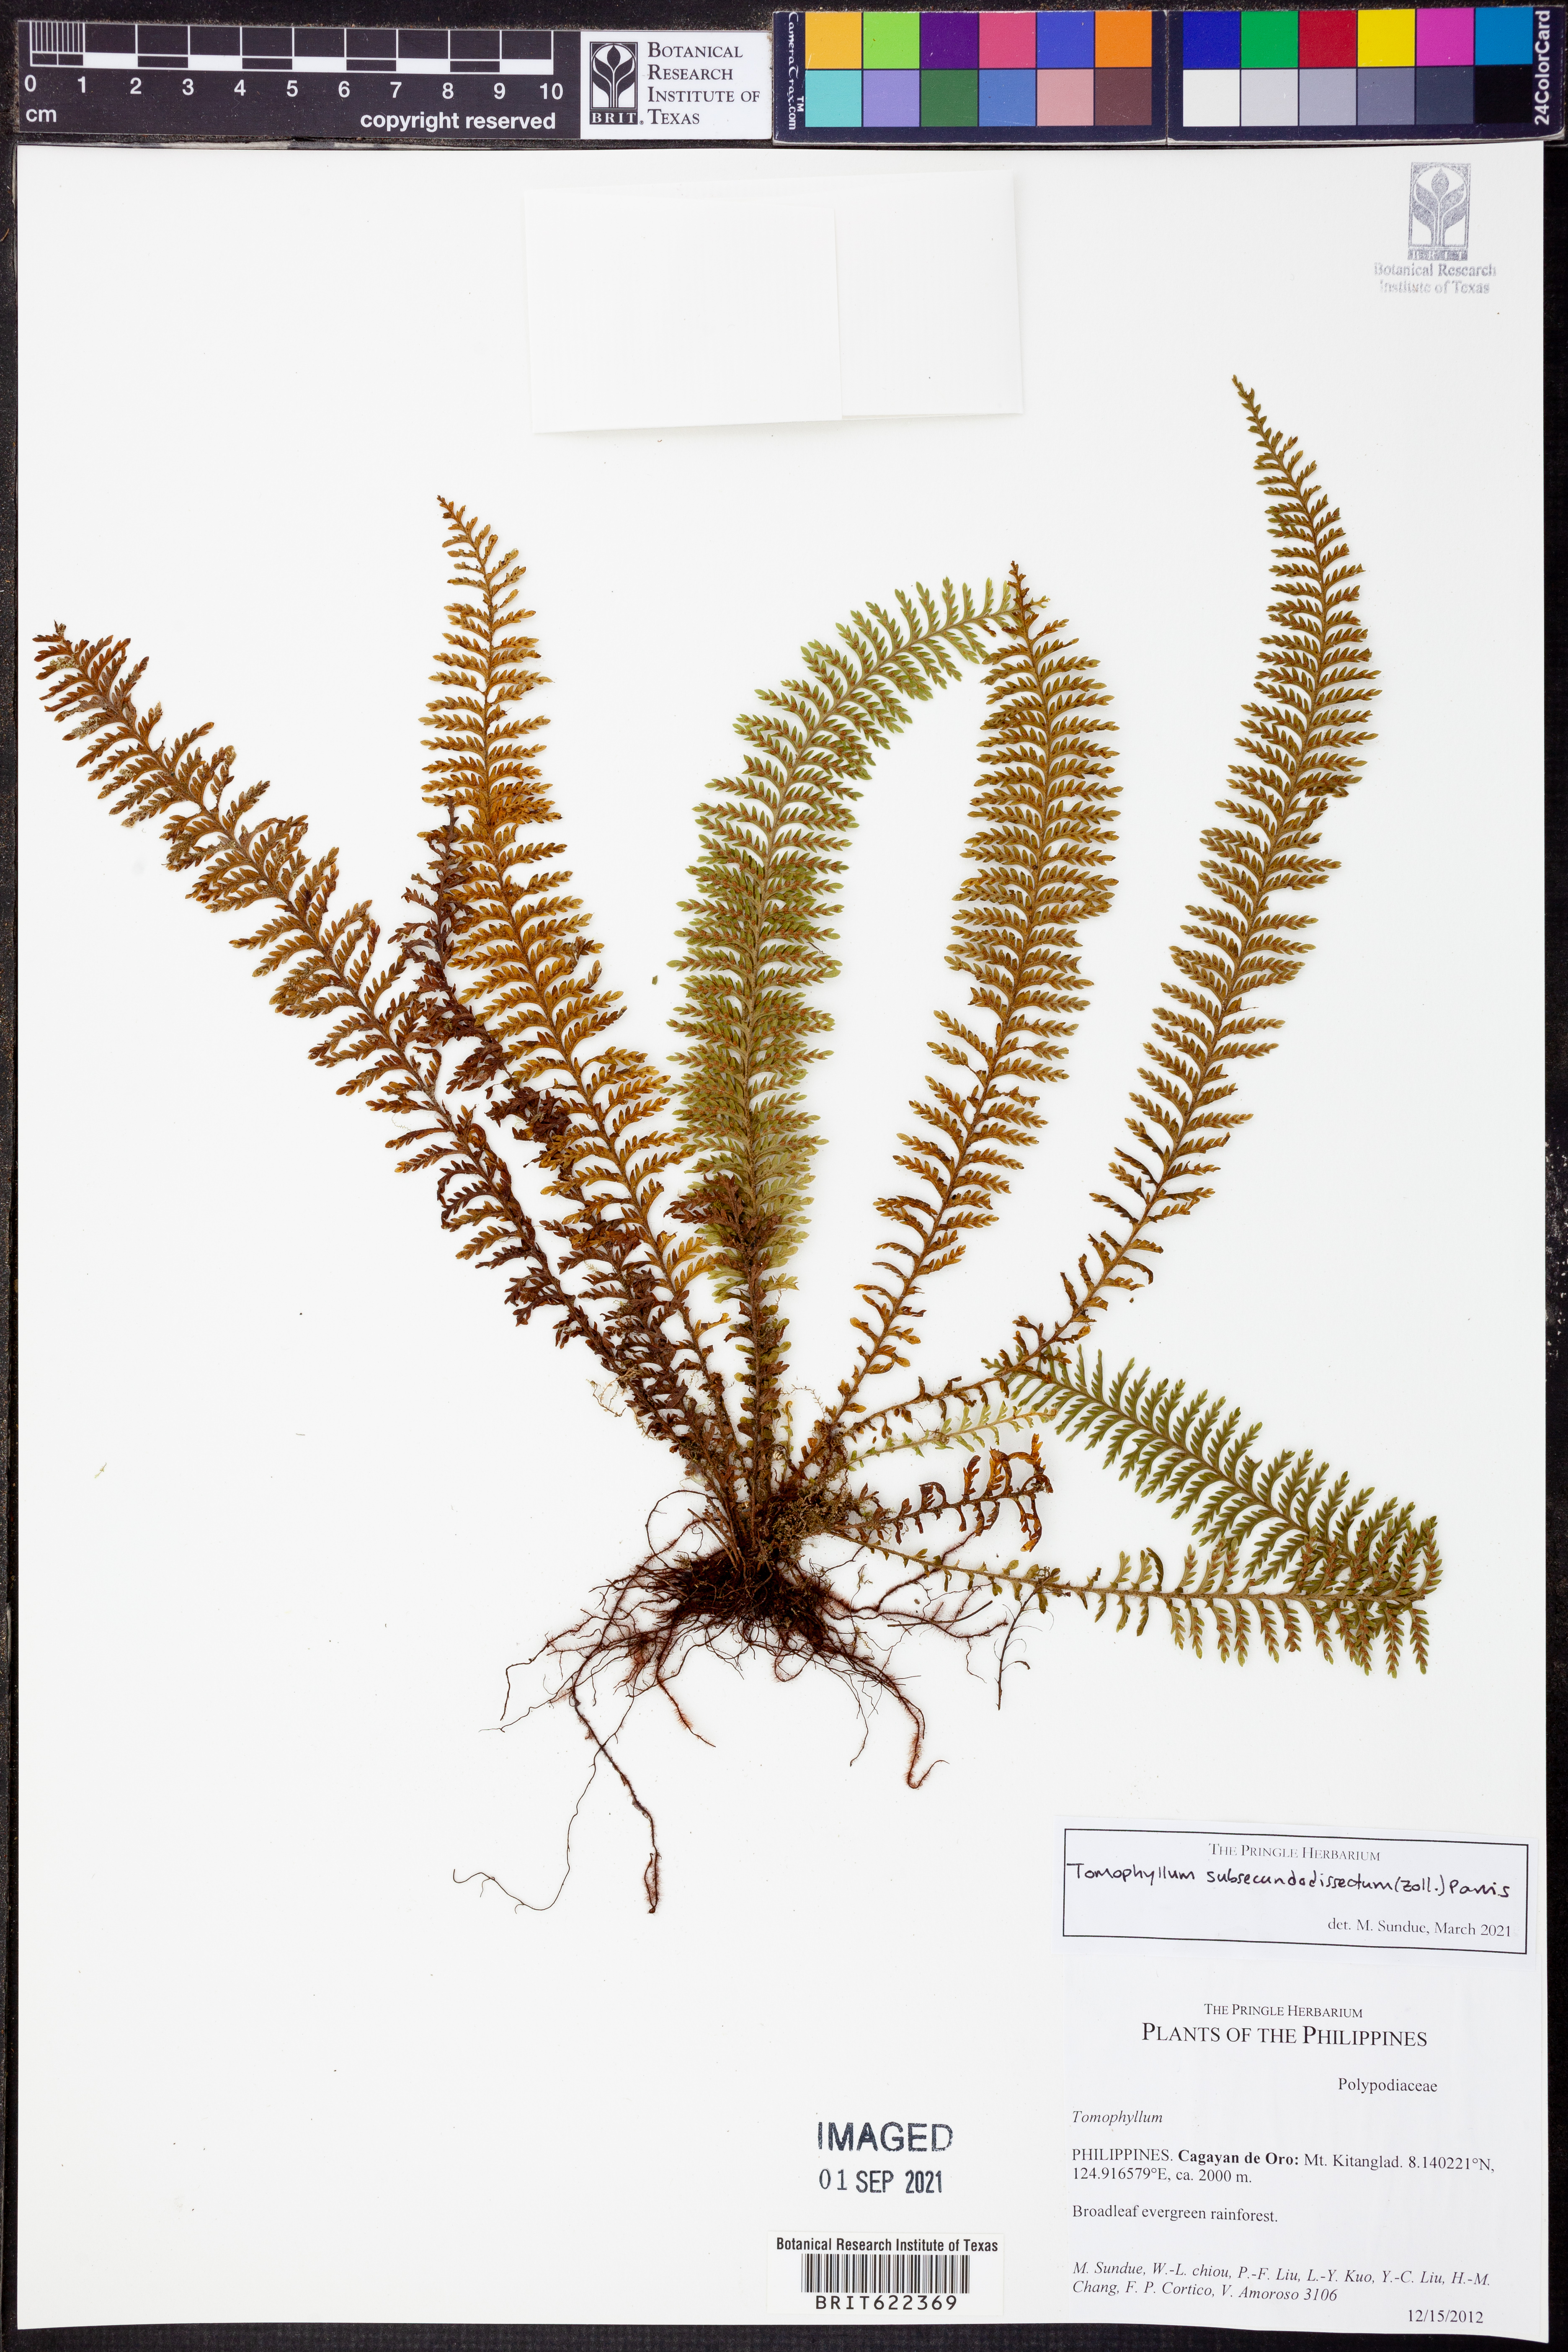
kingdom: Plantae
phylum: Tracheophyta
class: Polypodiopsida
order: Polypodiales
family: Polypodiaceae
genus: Tomophyllum
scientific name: Tomophyllum subsecundodissectum
